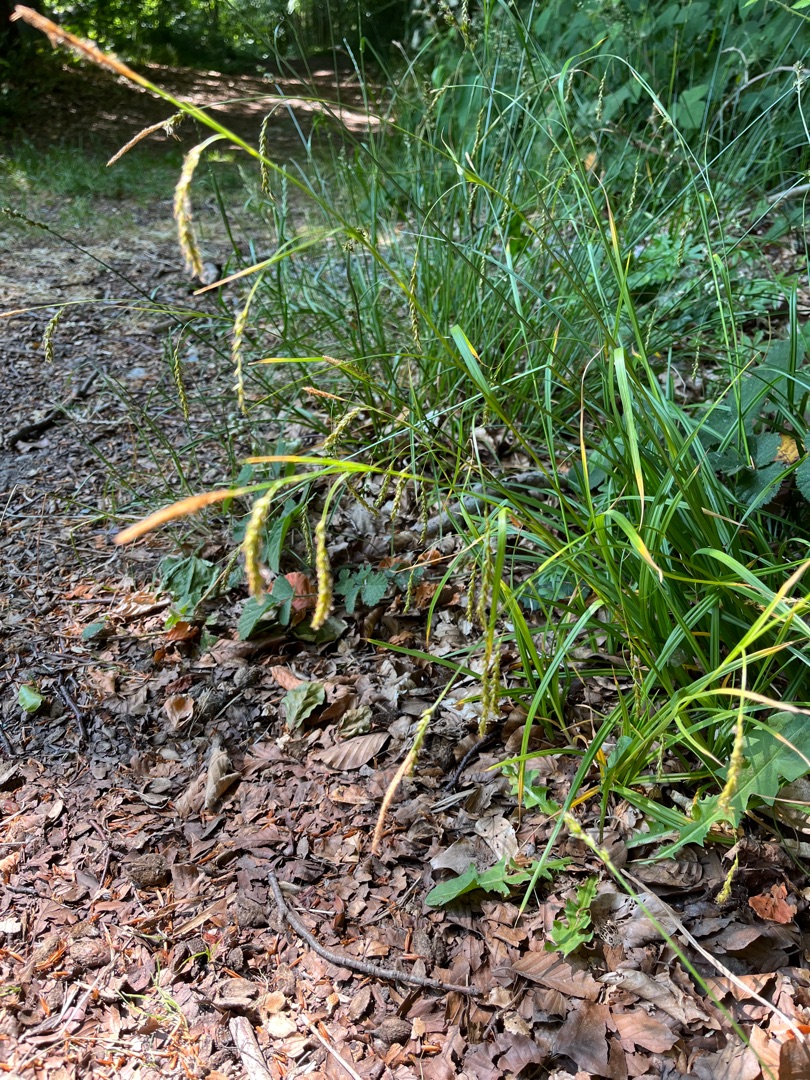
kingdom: Plantae
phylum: Tracheophyta
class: Liliopsida
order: Poales
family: Cyperaceae
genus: Carex
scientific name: Carex sylvatica
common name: Skov-star
